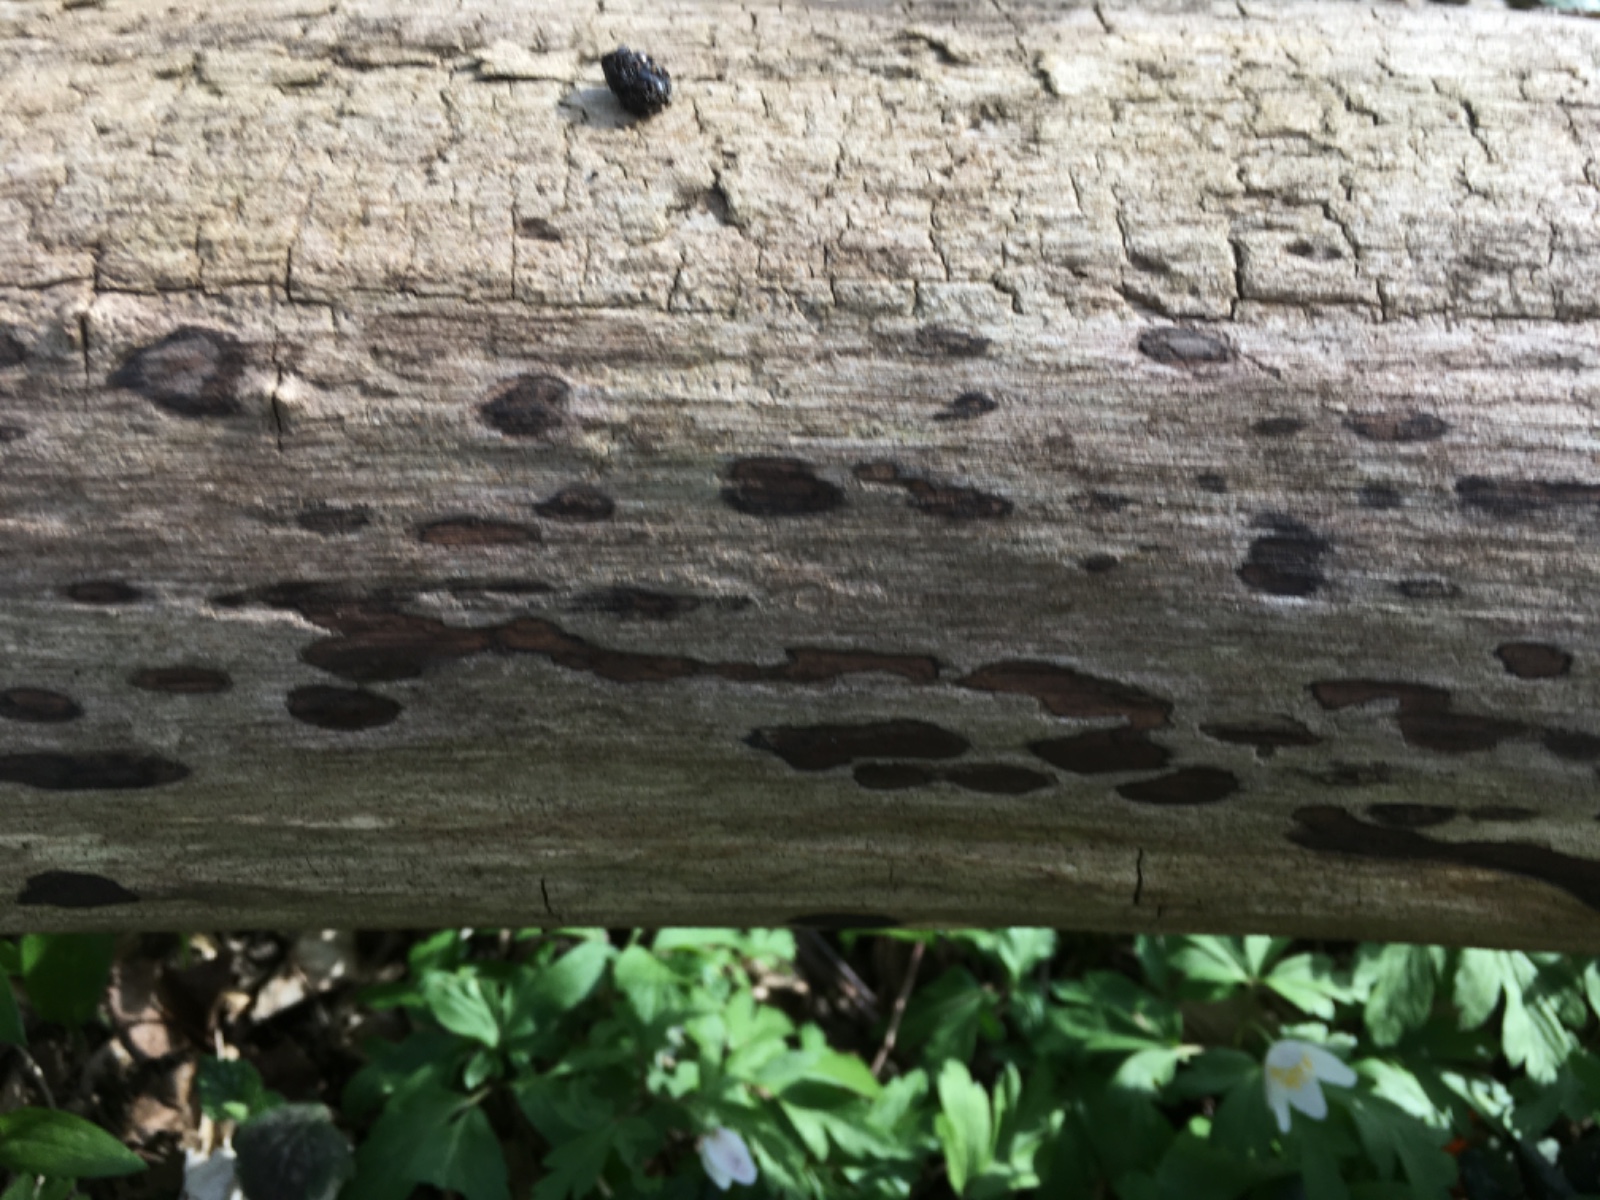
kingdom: Fungi
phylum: Ascomycota
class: Sordariomycetes
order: Xylariales
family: Hypoxylaceae
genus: Hypoxylon
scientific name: Hypoxylon petriniae
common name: nedsænket kulbær
